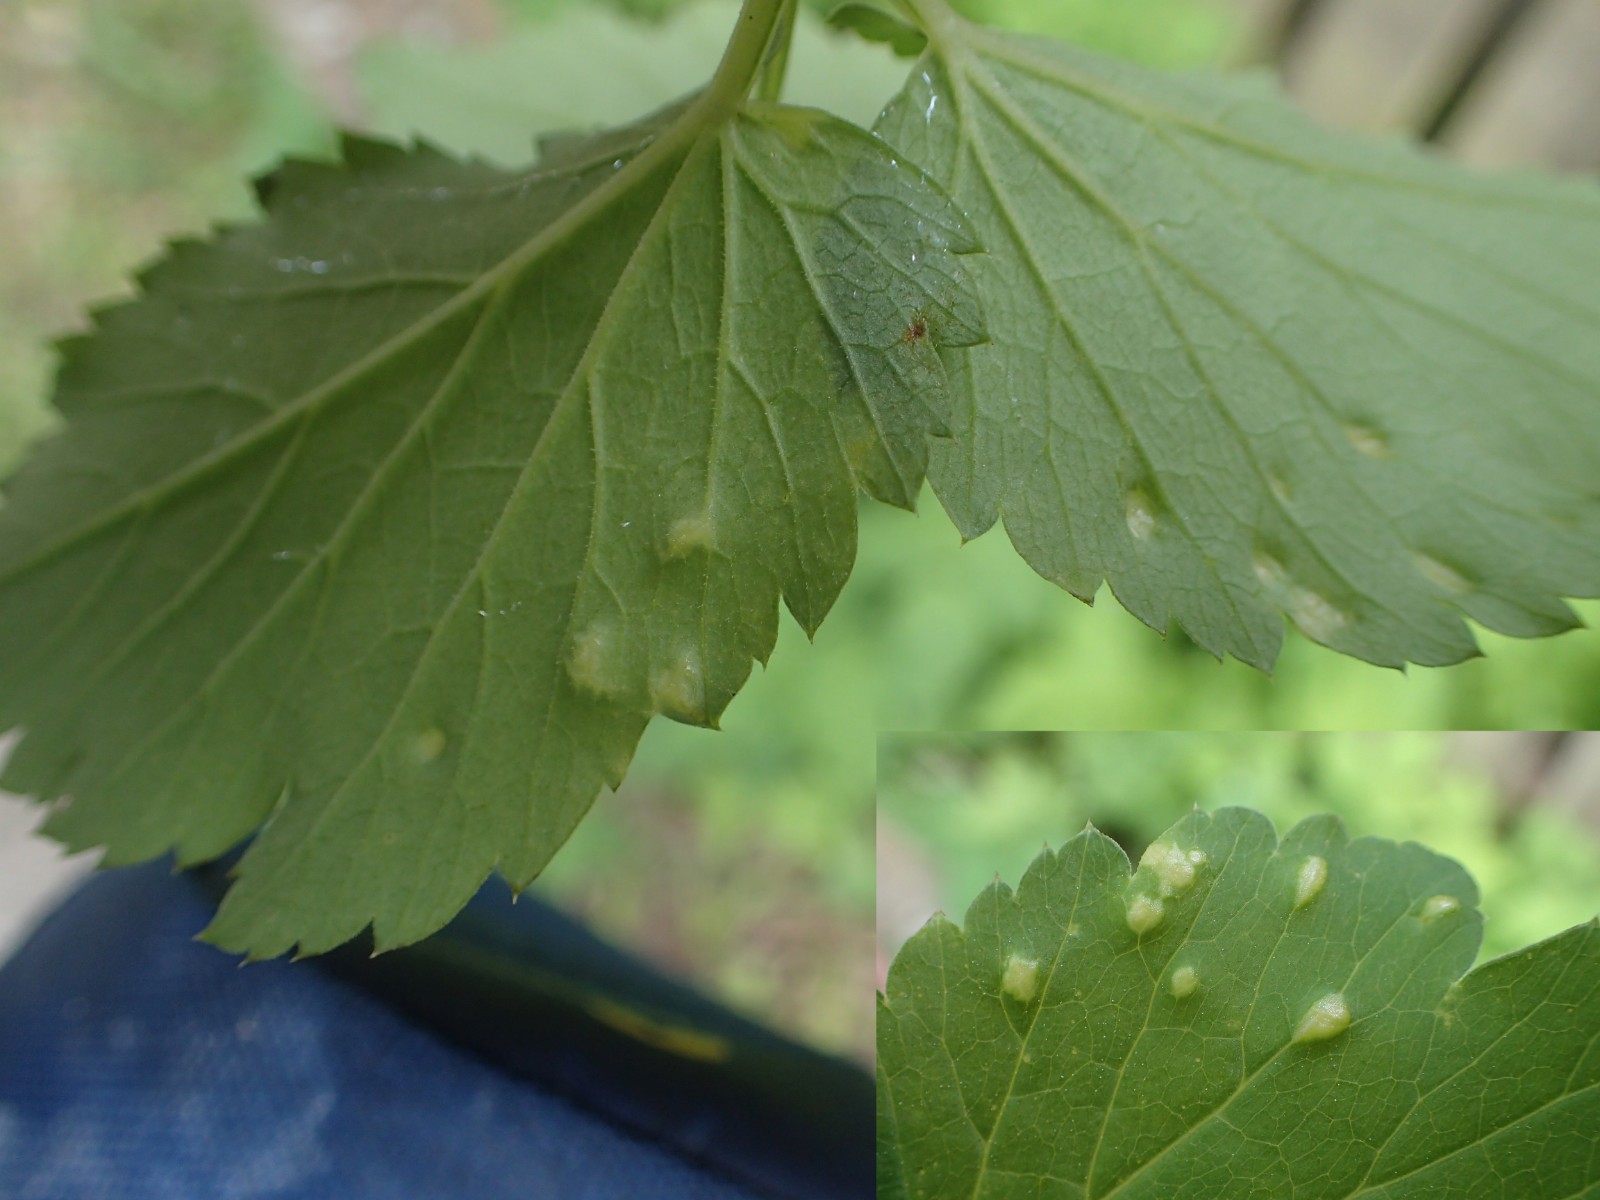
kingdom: Fungi
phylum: Ascomycota
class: Taphrinomycetes
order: Taphrinales
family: Taphrinaceae
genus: Protomyces
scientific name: Protomyces macrosporus
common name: skvalderkål-vablesæk
